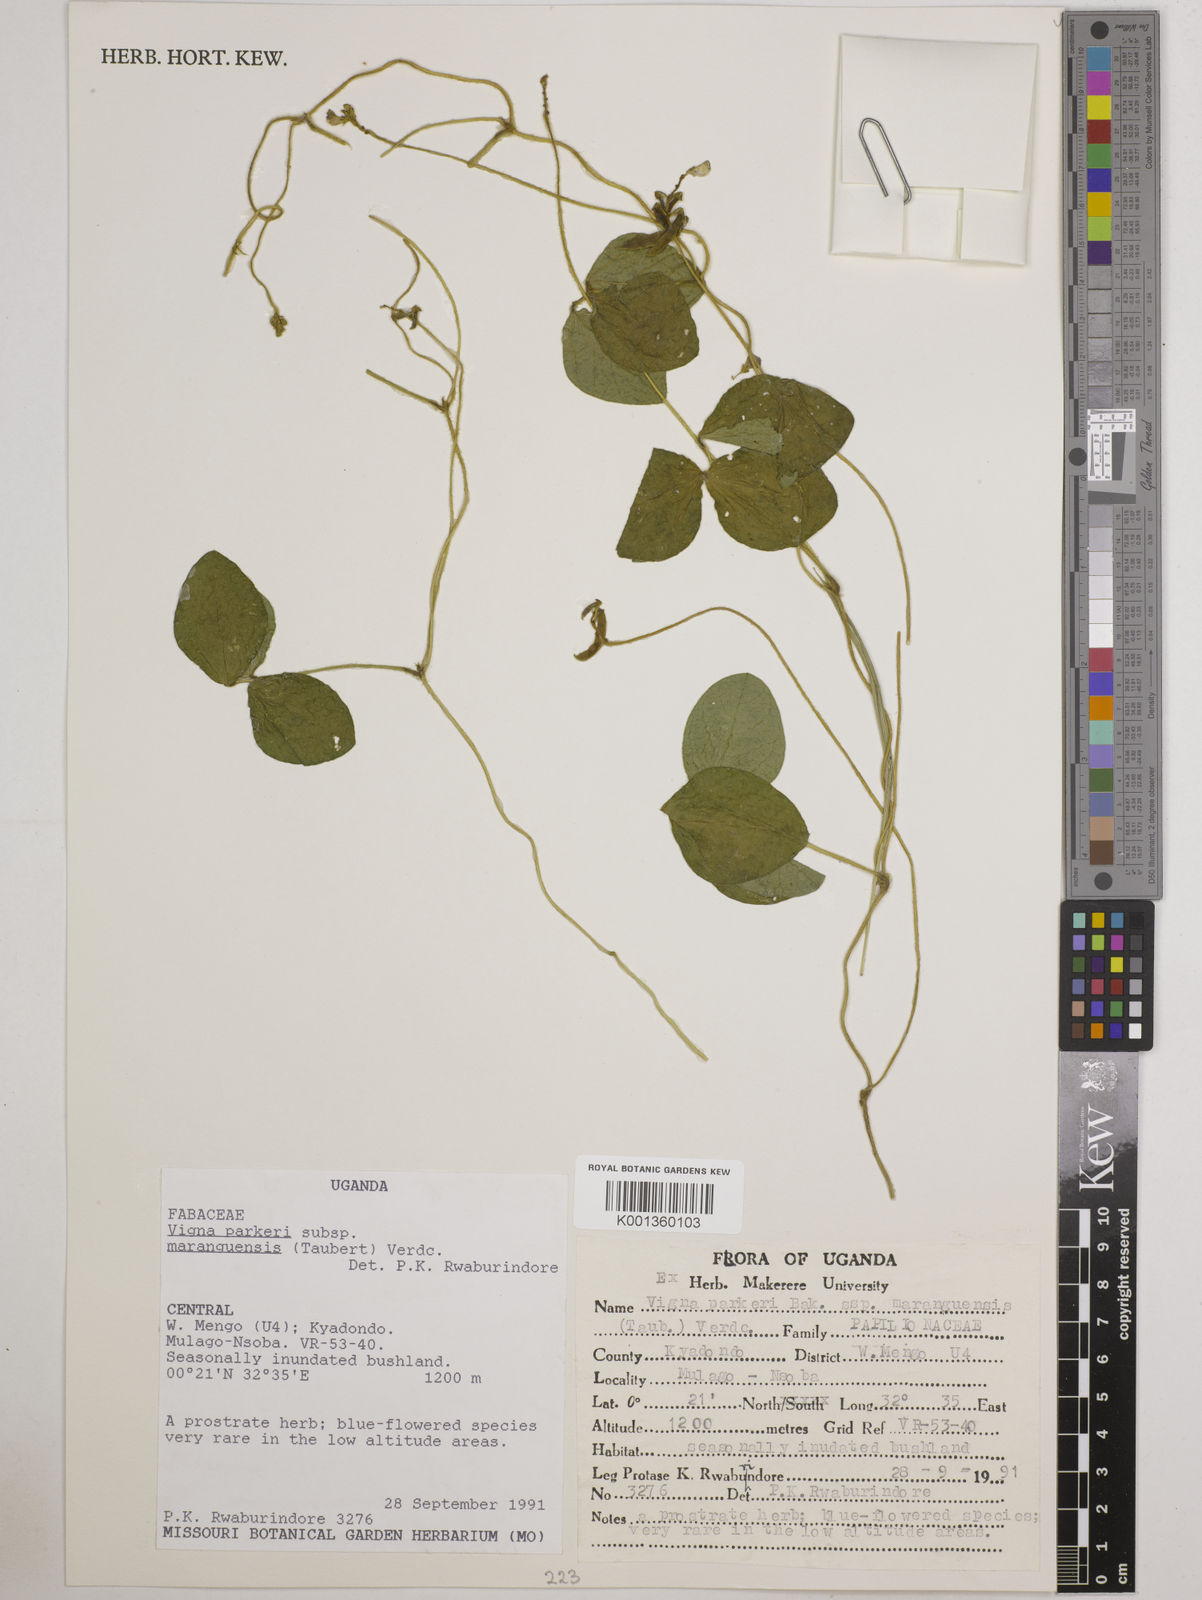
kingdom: Plantae
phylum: Tracheophyta
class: Magnoliopsida
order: Fabales
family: Fabaceae
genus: Vigna
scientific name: Vigna parkeri
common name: Creeping vigna
